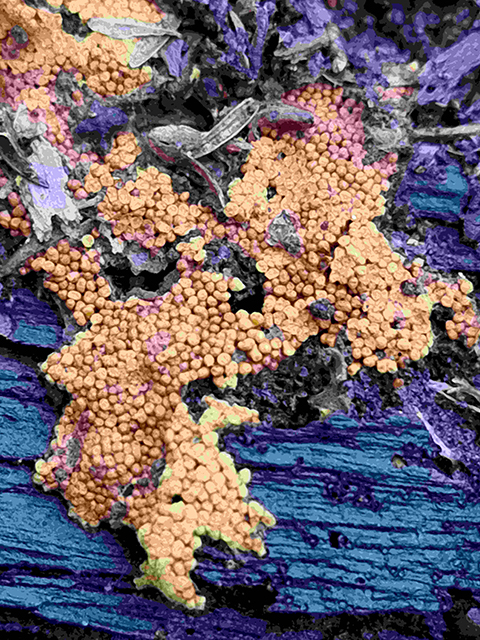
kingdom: Protozoa
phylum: Mycetozoa
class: Myxomycetes
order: Trichiales
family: Trichiaceae
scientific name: Trichiaceae
